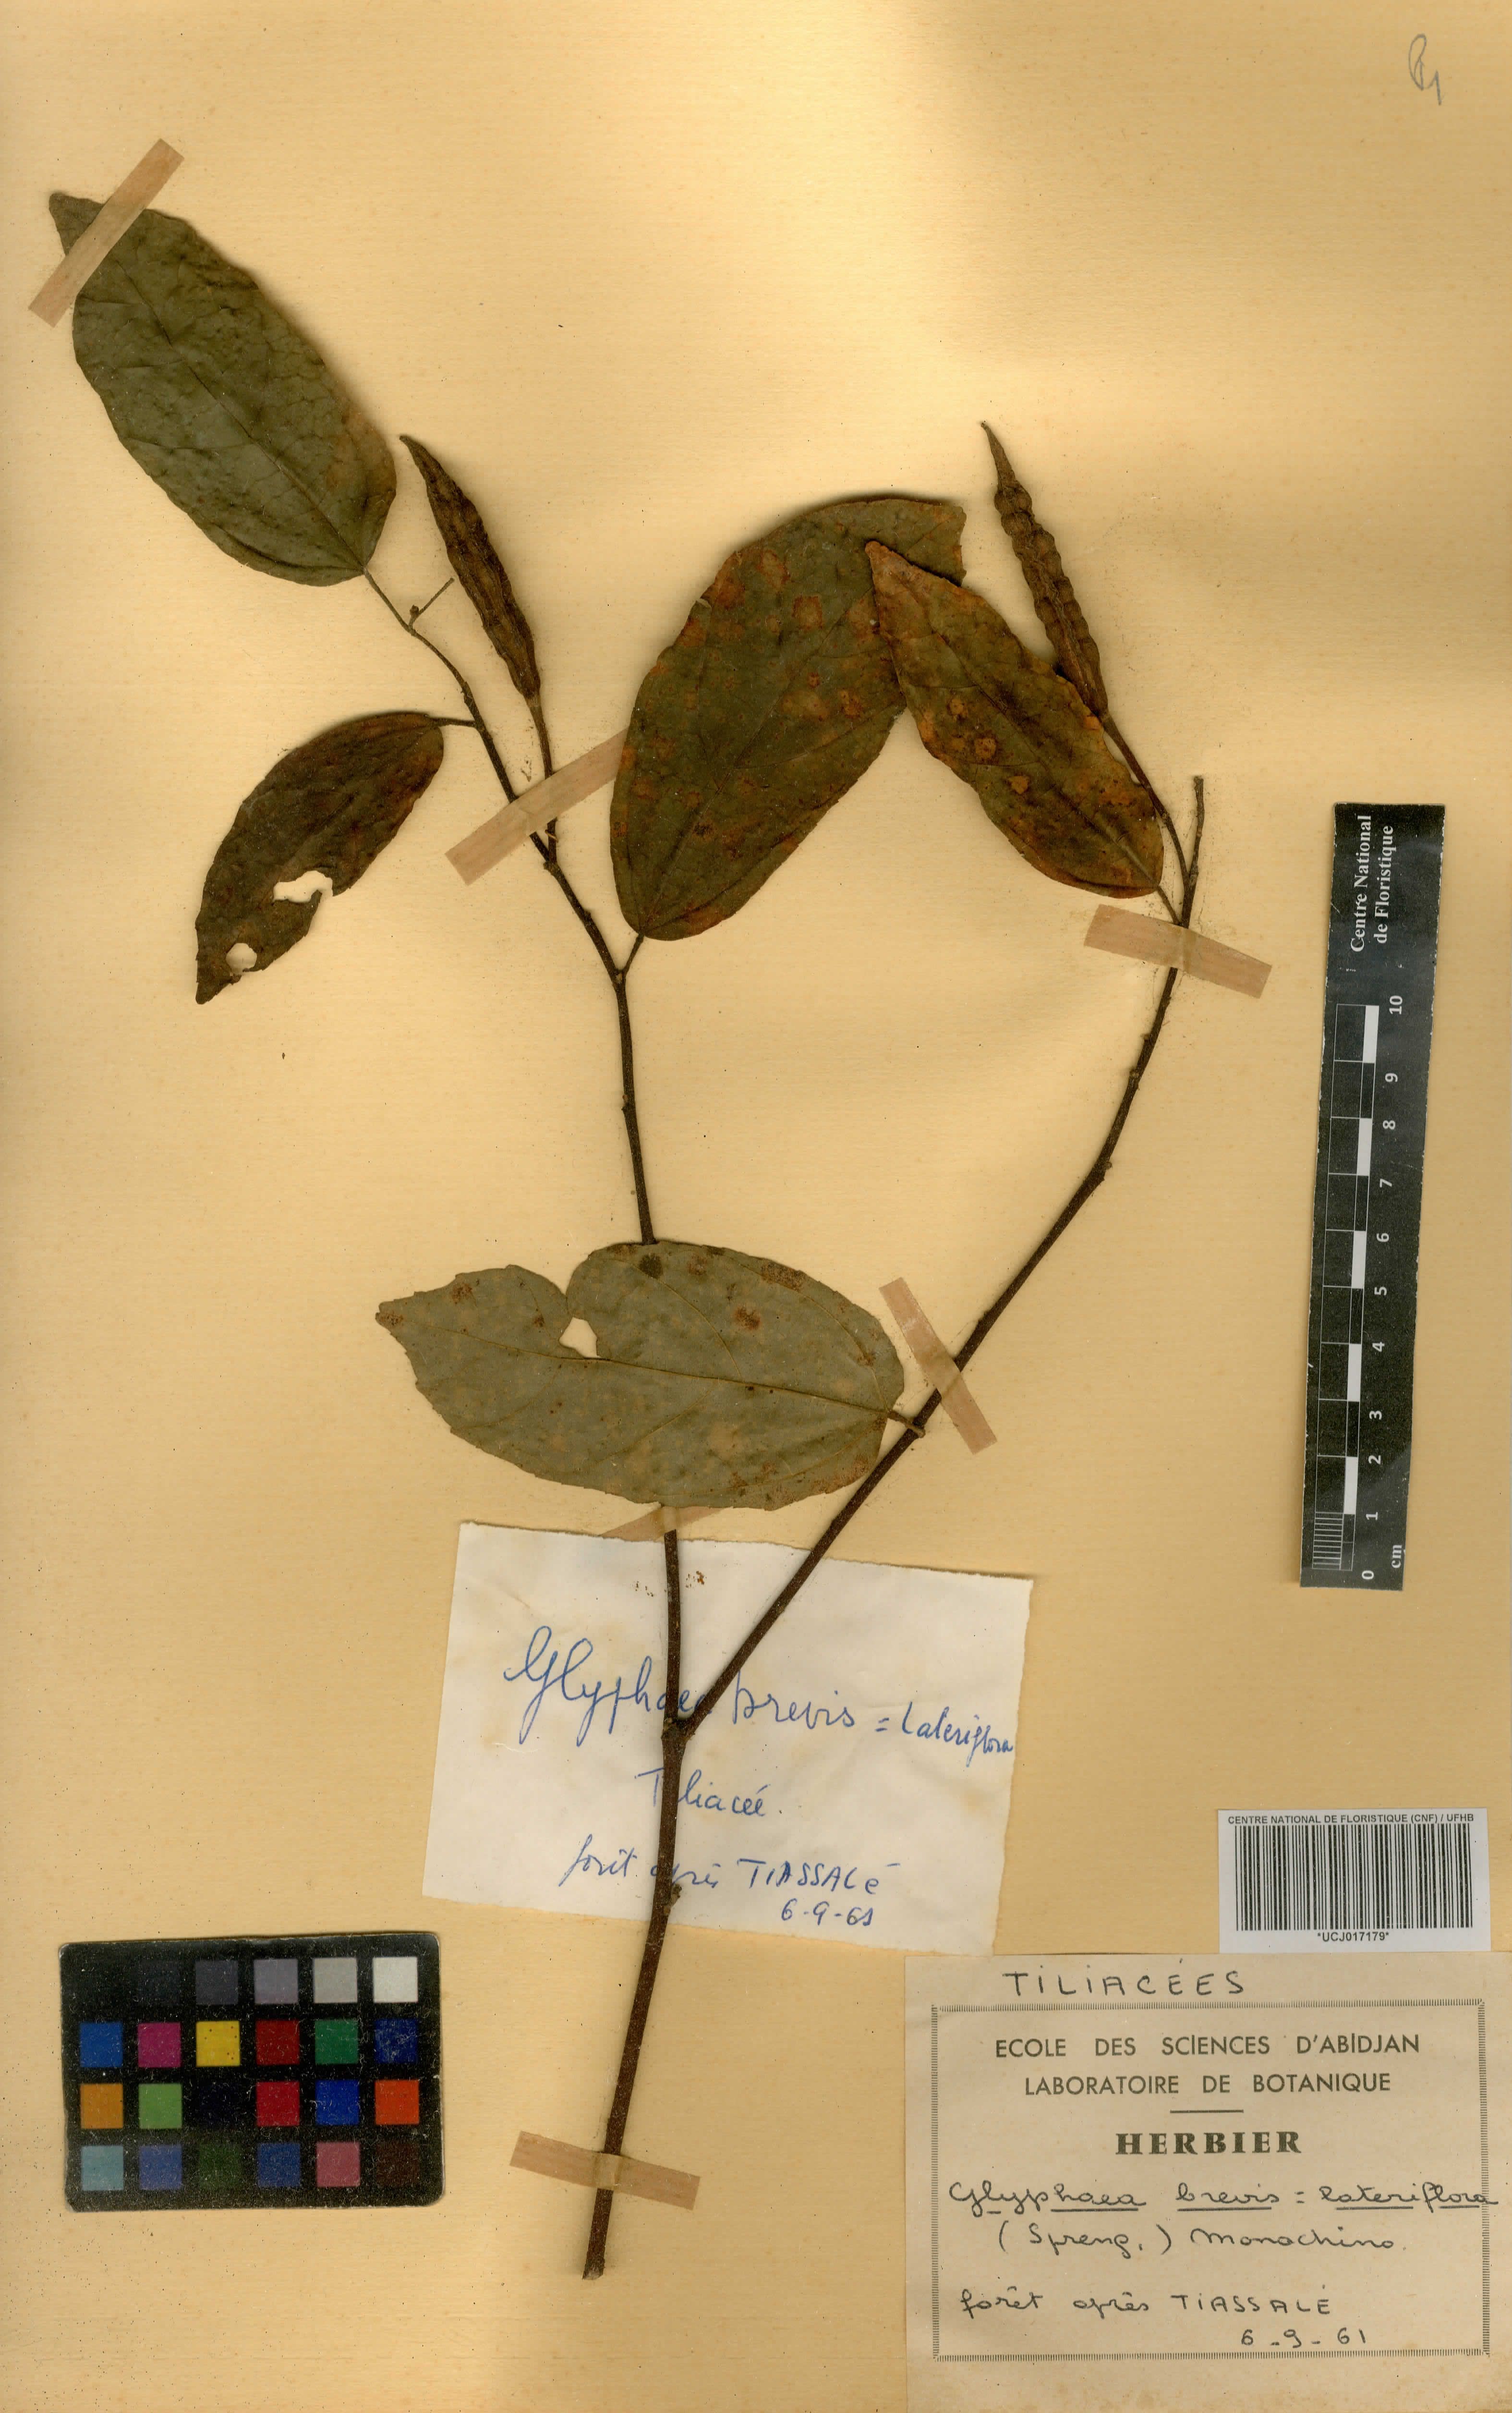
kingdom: Plantae
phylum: Tracheophyta
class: Magnoliopsida
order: Malvales
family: Malvaceae
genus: Glyphaea
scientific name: Glyphaea brevis
